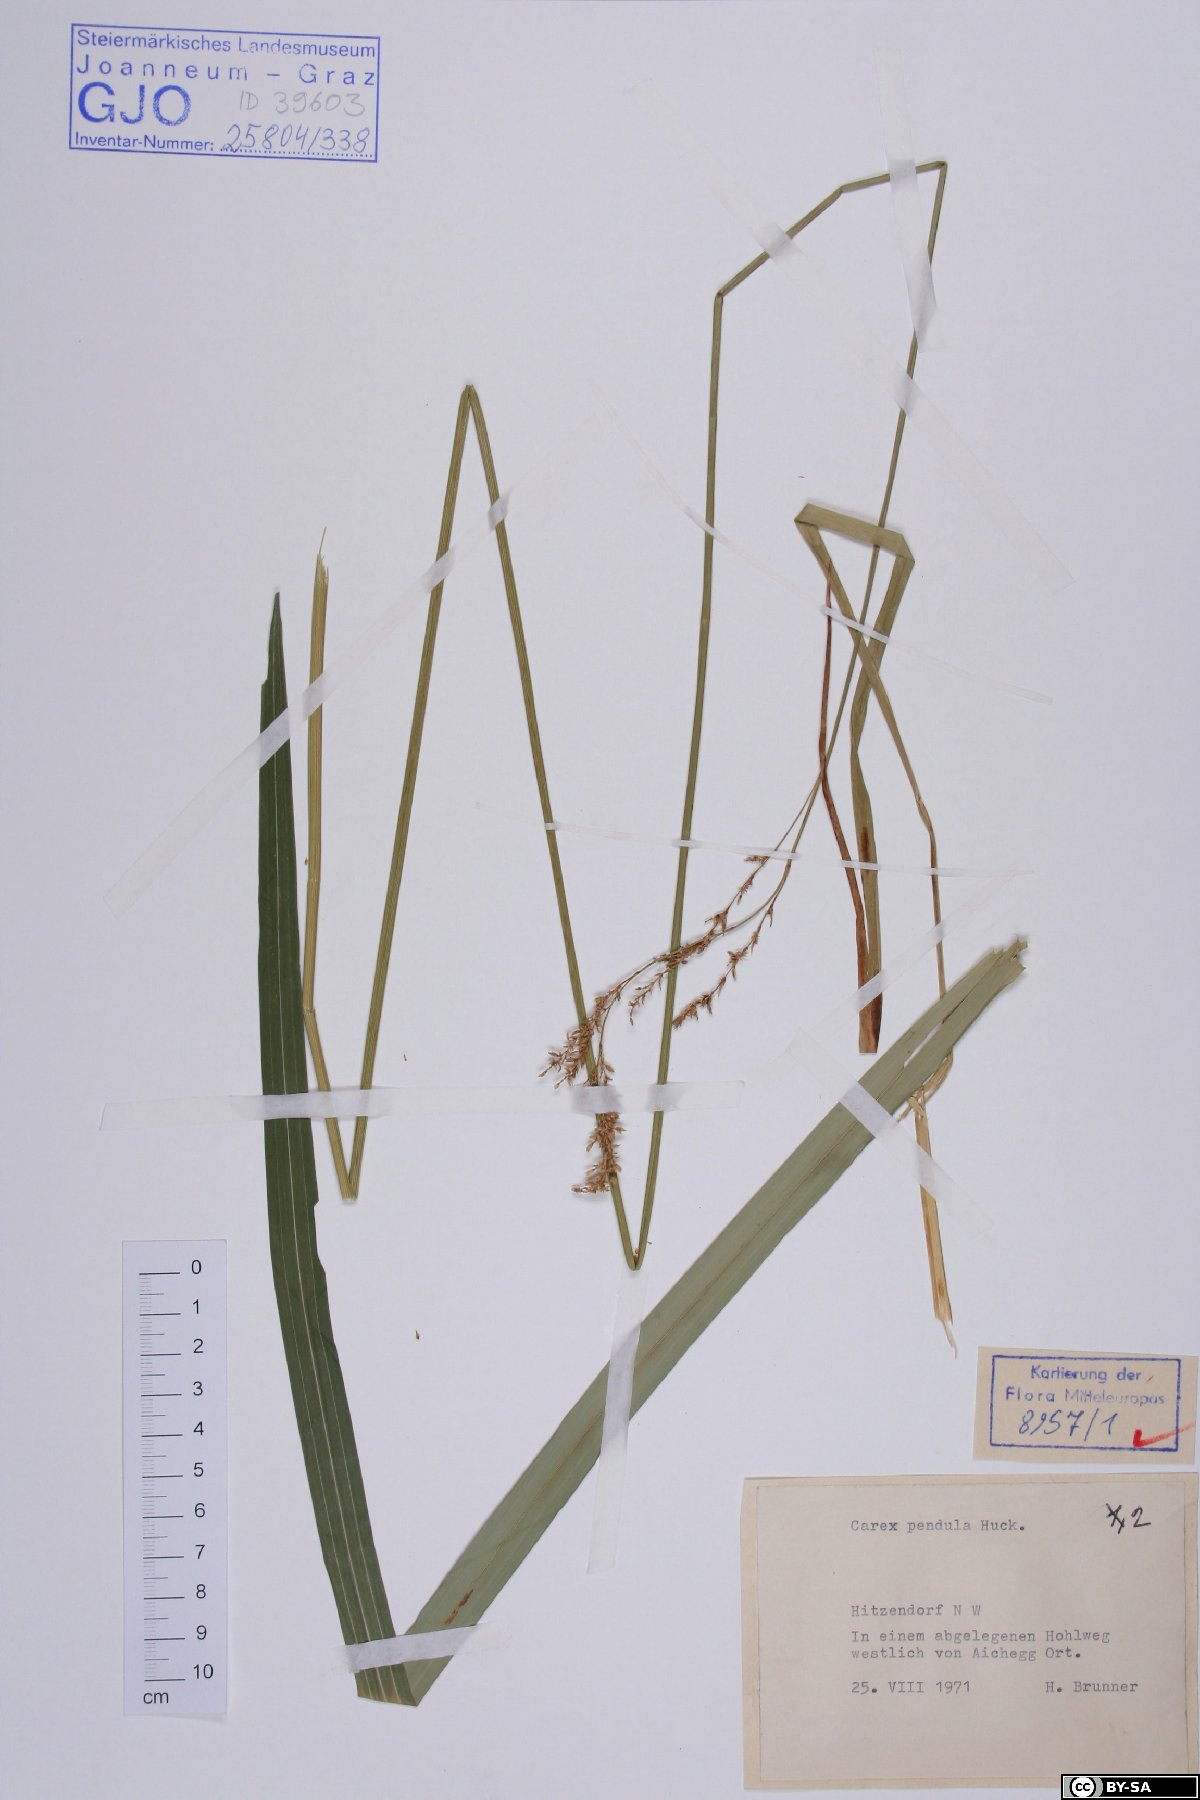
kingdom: Plantae
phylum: Tracheophyta
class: Liliopsida
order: Poales
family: Cyperaceae
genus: Carex
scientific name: Carex pendula
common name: Pendulous sedge
